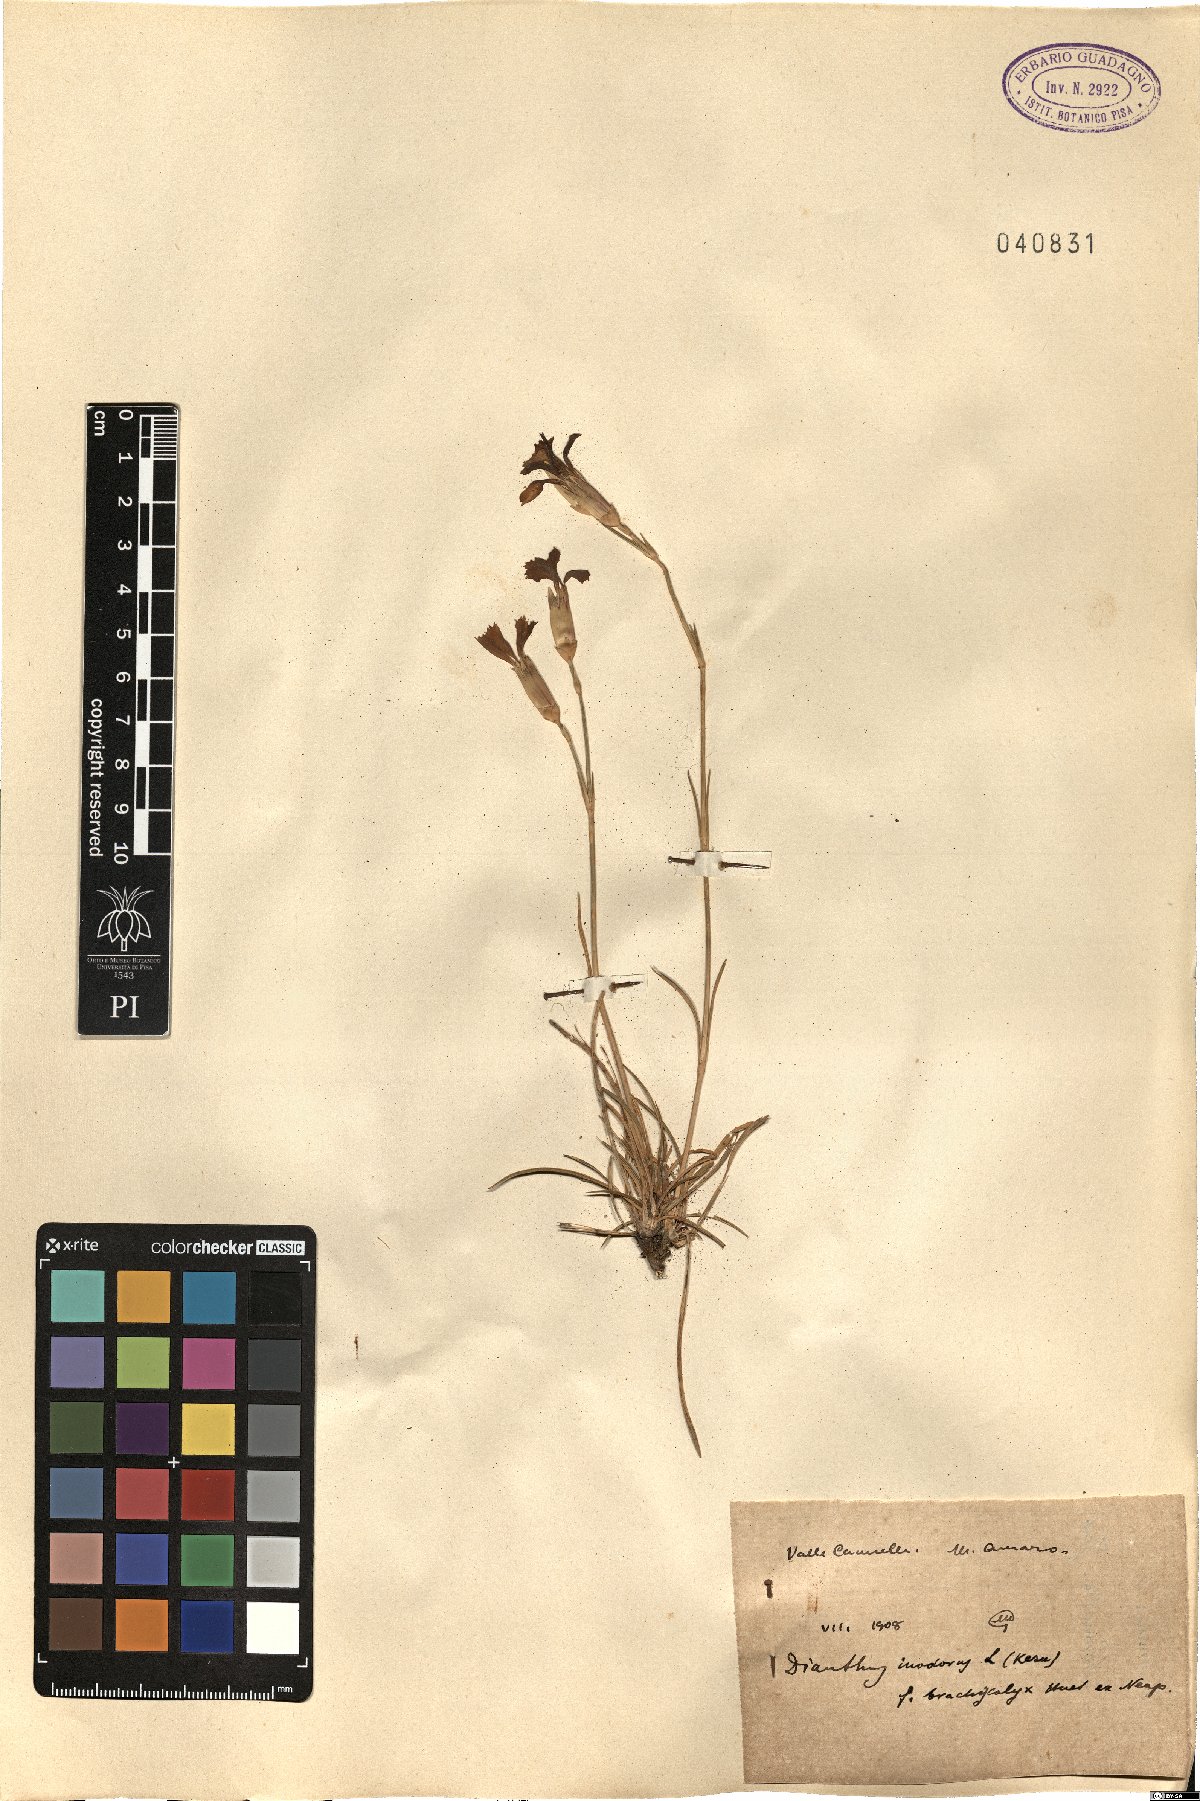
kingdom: Plantae
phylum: Tracheophyta
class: Magnoliopsida
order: Caryophyllales
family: Caryophyllaceae
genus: Dianthus
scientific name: Dianthus sylvestris
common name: Wood pink
